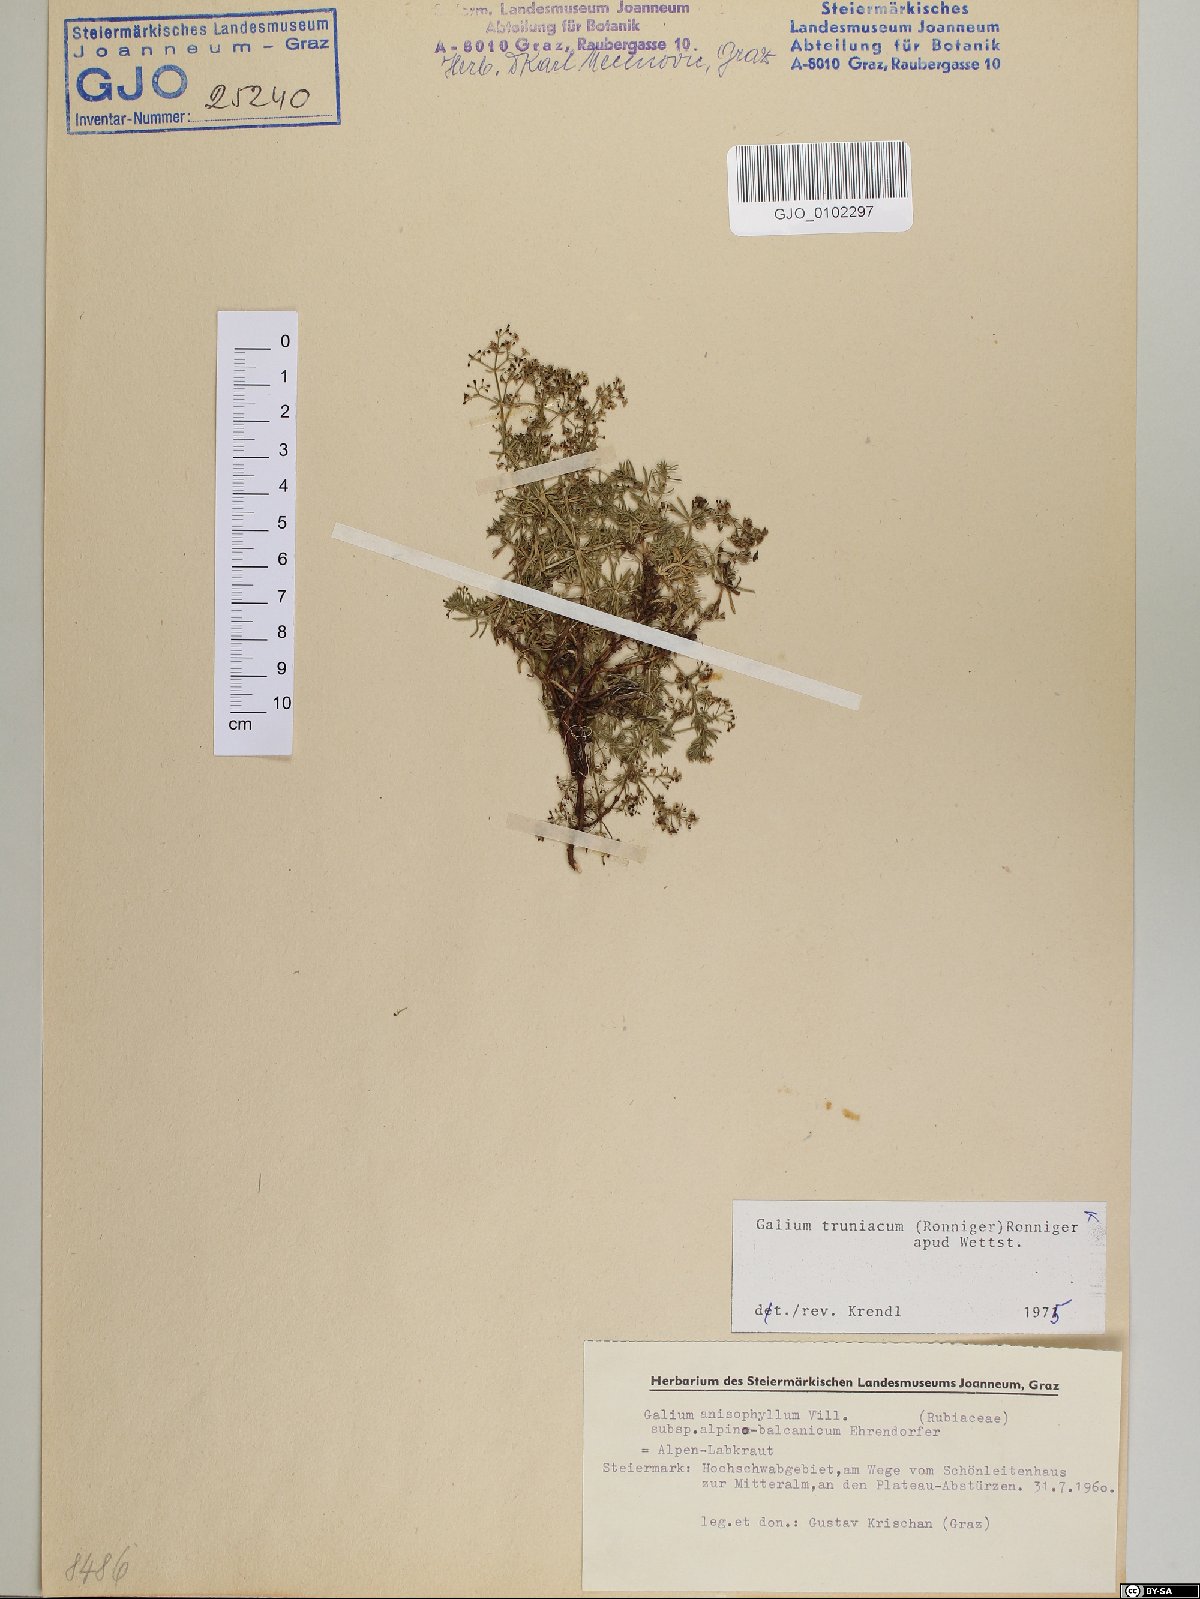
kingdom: Plantae
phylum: Tracheophyta
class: Magnoliopsida
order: Gentianales
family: Rubiaceae
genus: Galium
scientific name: Galium truniacum
